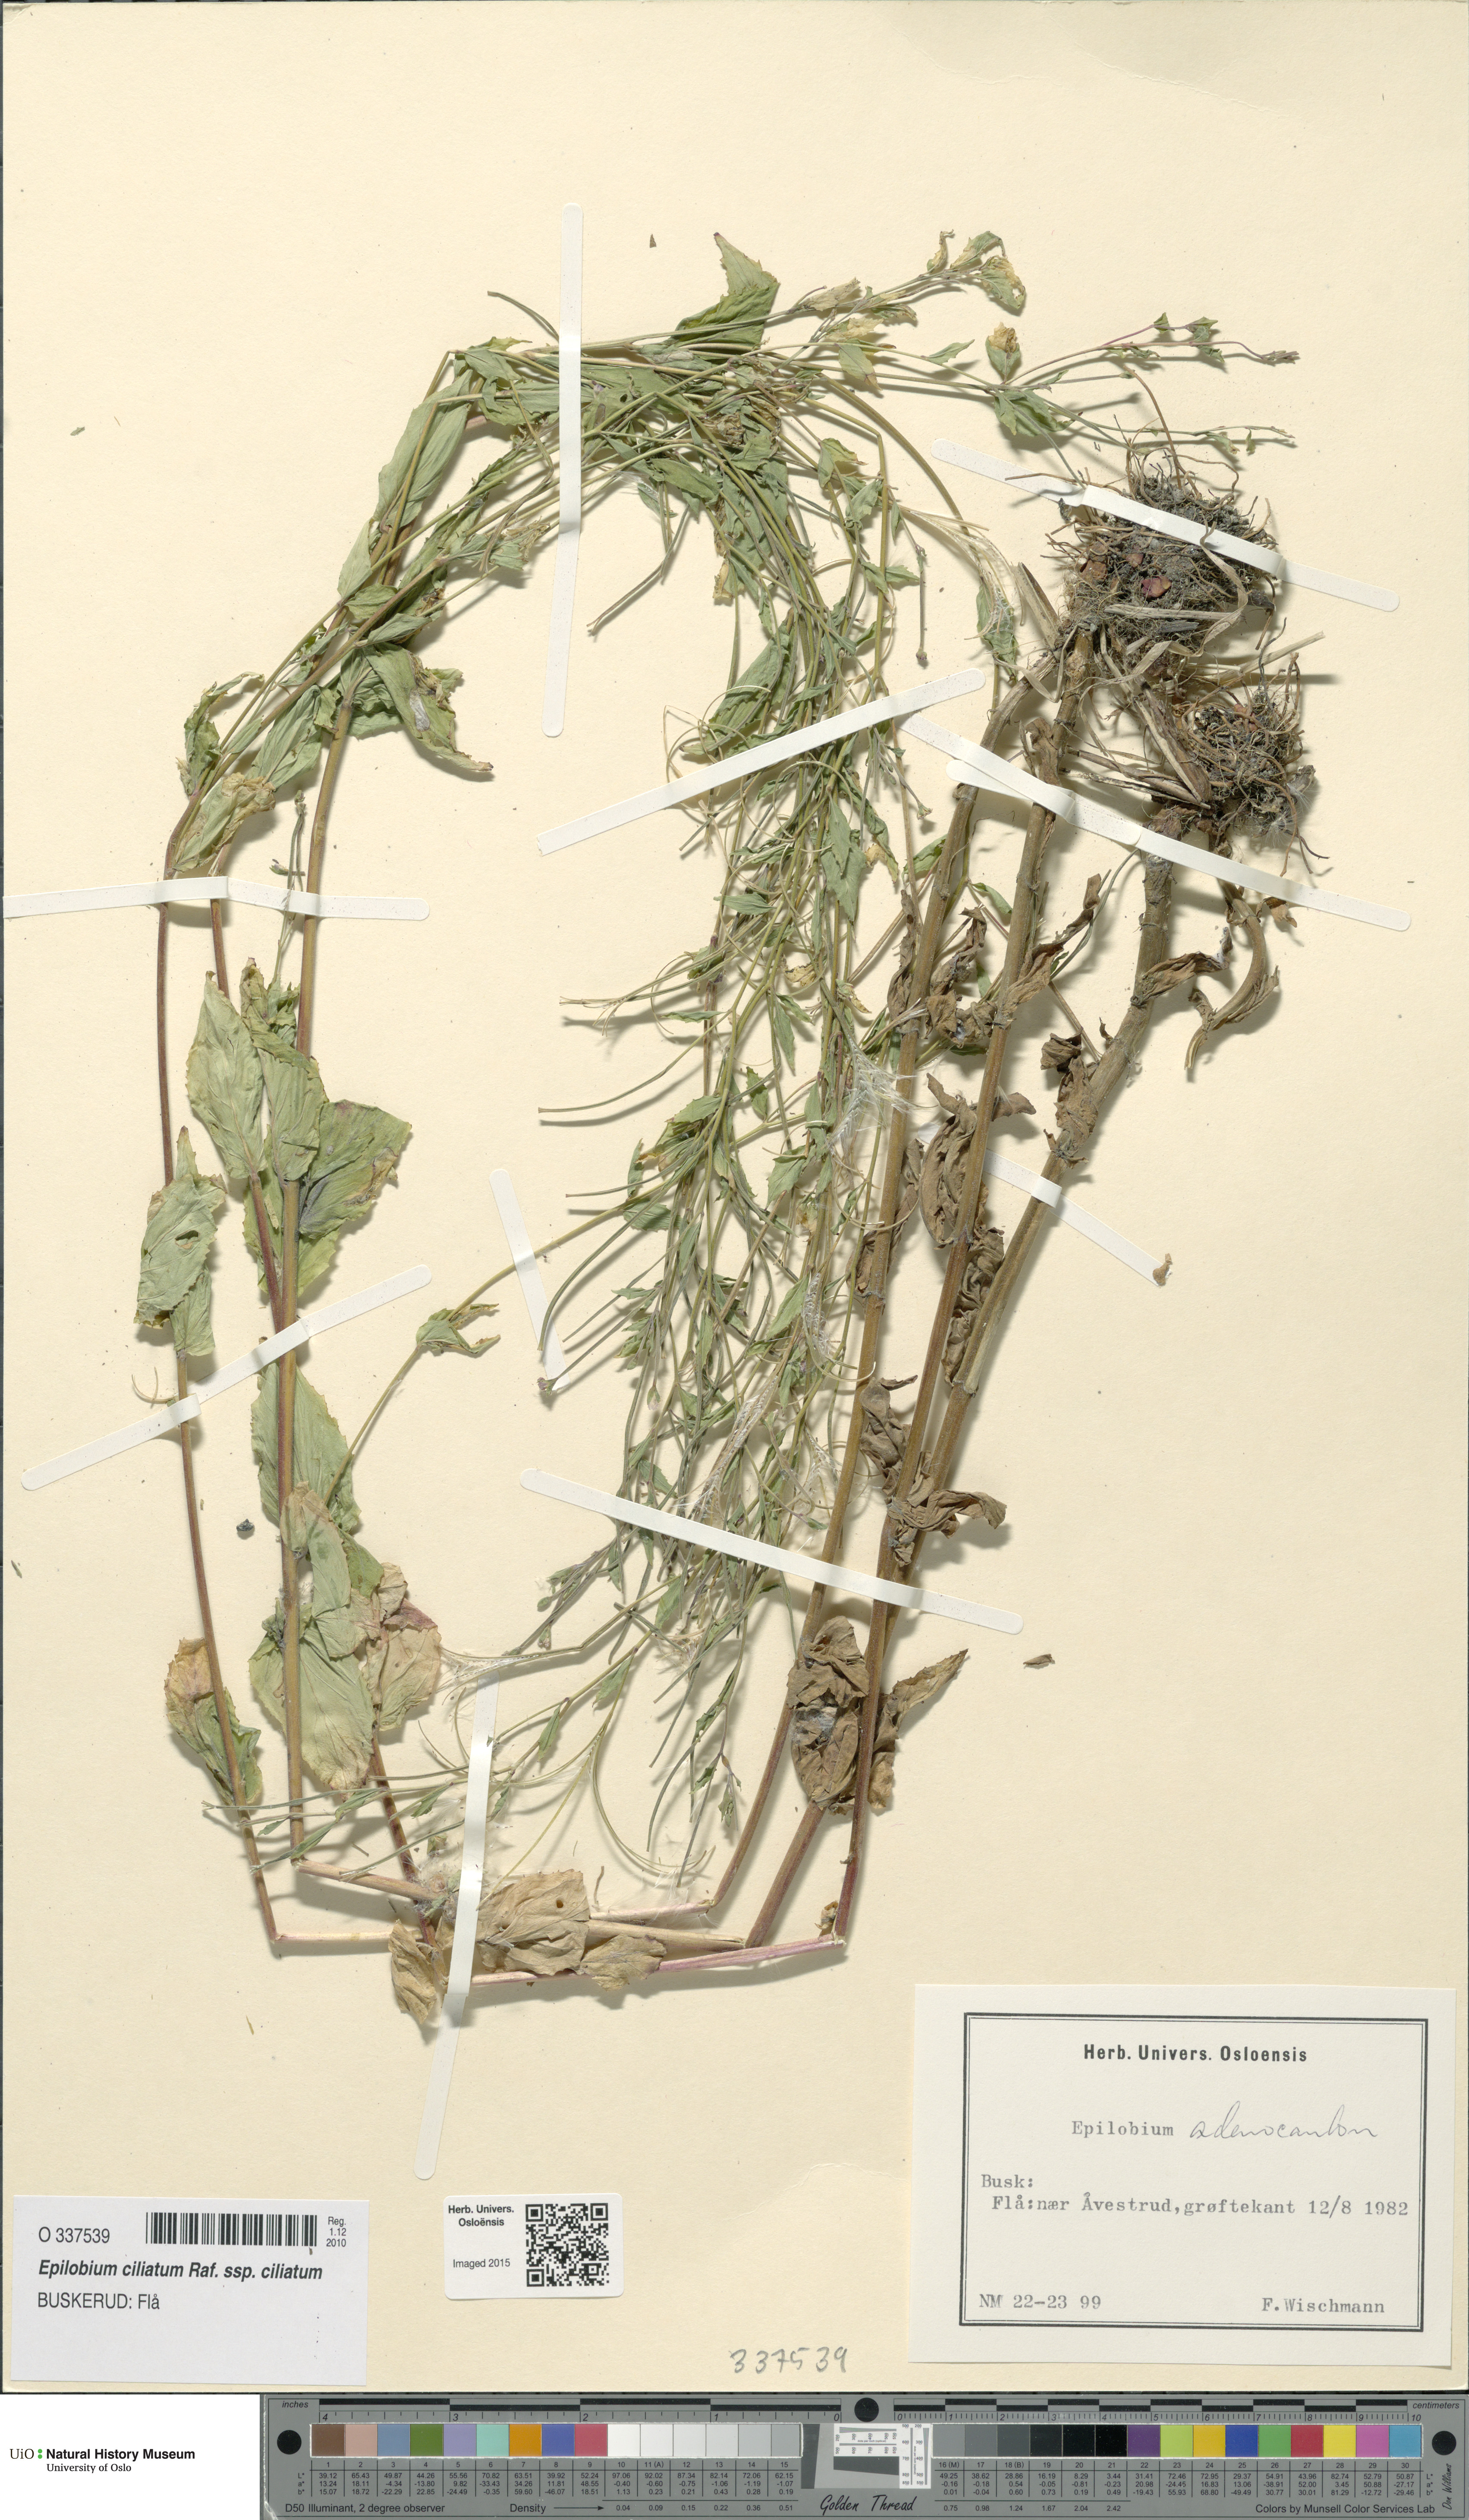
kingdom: Plantae
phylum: Tracheophyta
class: Magnoliopsida
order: Myrtales
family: Onagraceae
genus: Epilobium
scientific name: Epilobium ciliatum
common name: American willowherb
